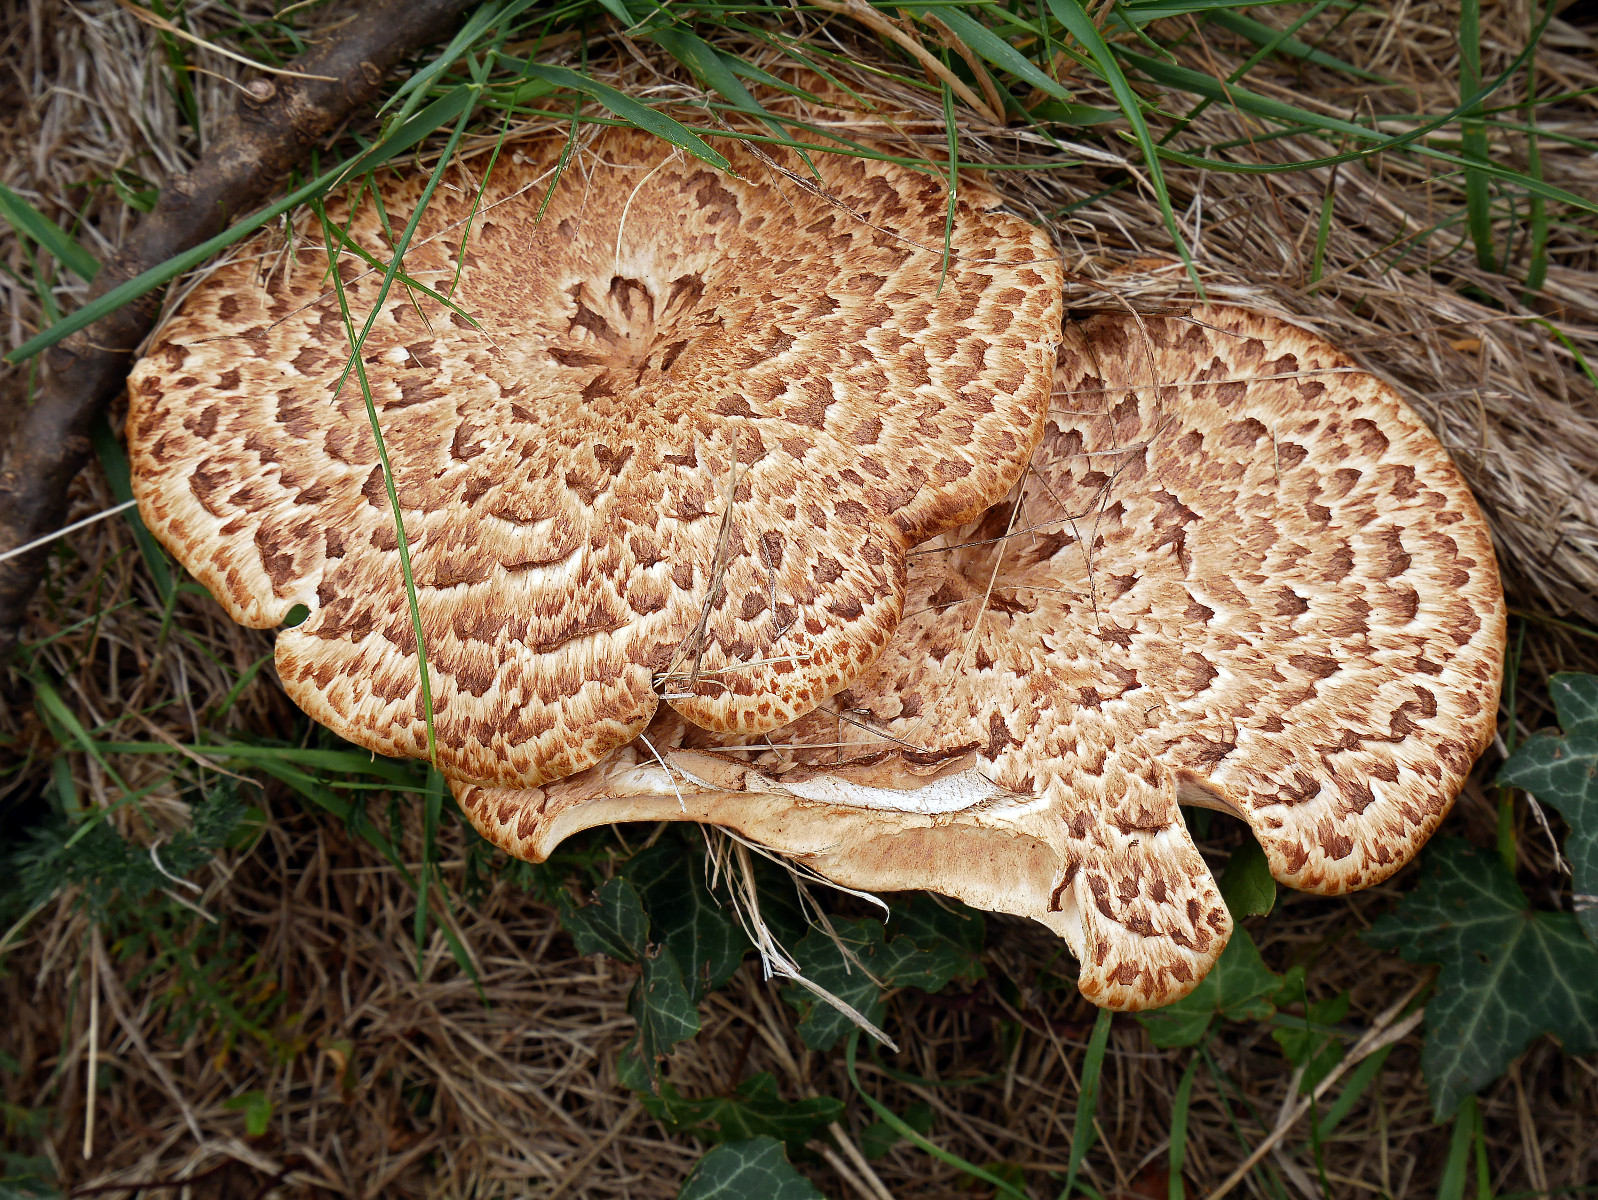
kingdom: Fungi
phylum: Basidiomycota
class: Agaricomycetes
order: Polyporales
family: Polyporaceae
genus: Cerioporus
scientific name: Cerioporus squamosus
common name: skællet stilkporesvamp
